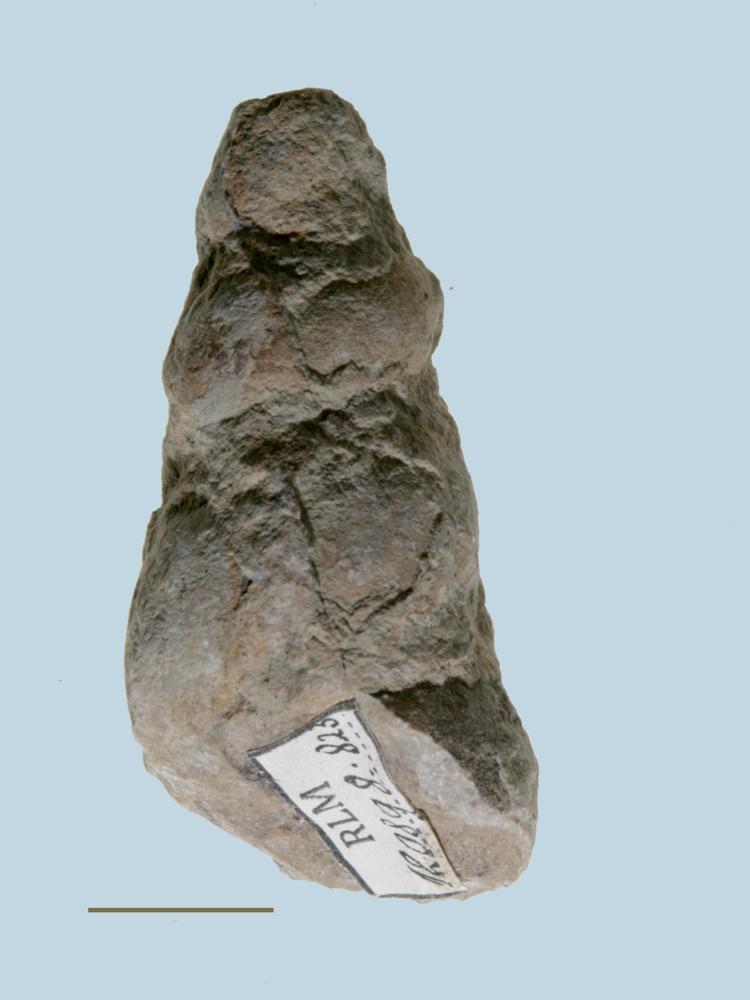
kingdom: Animalia
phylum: Mollusca
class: Gastropoda
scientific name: Gastropoda
